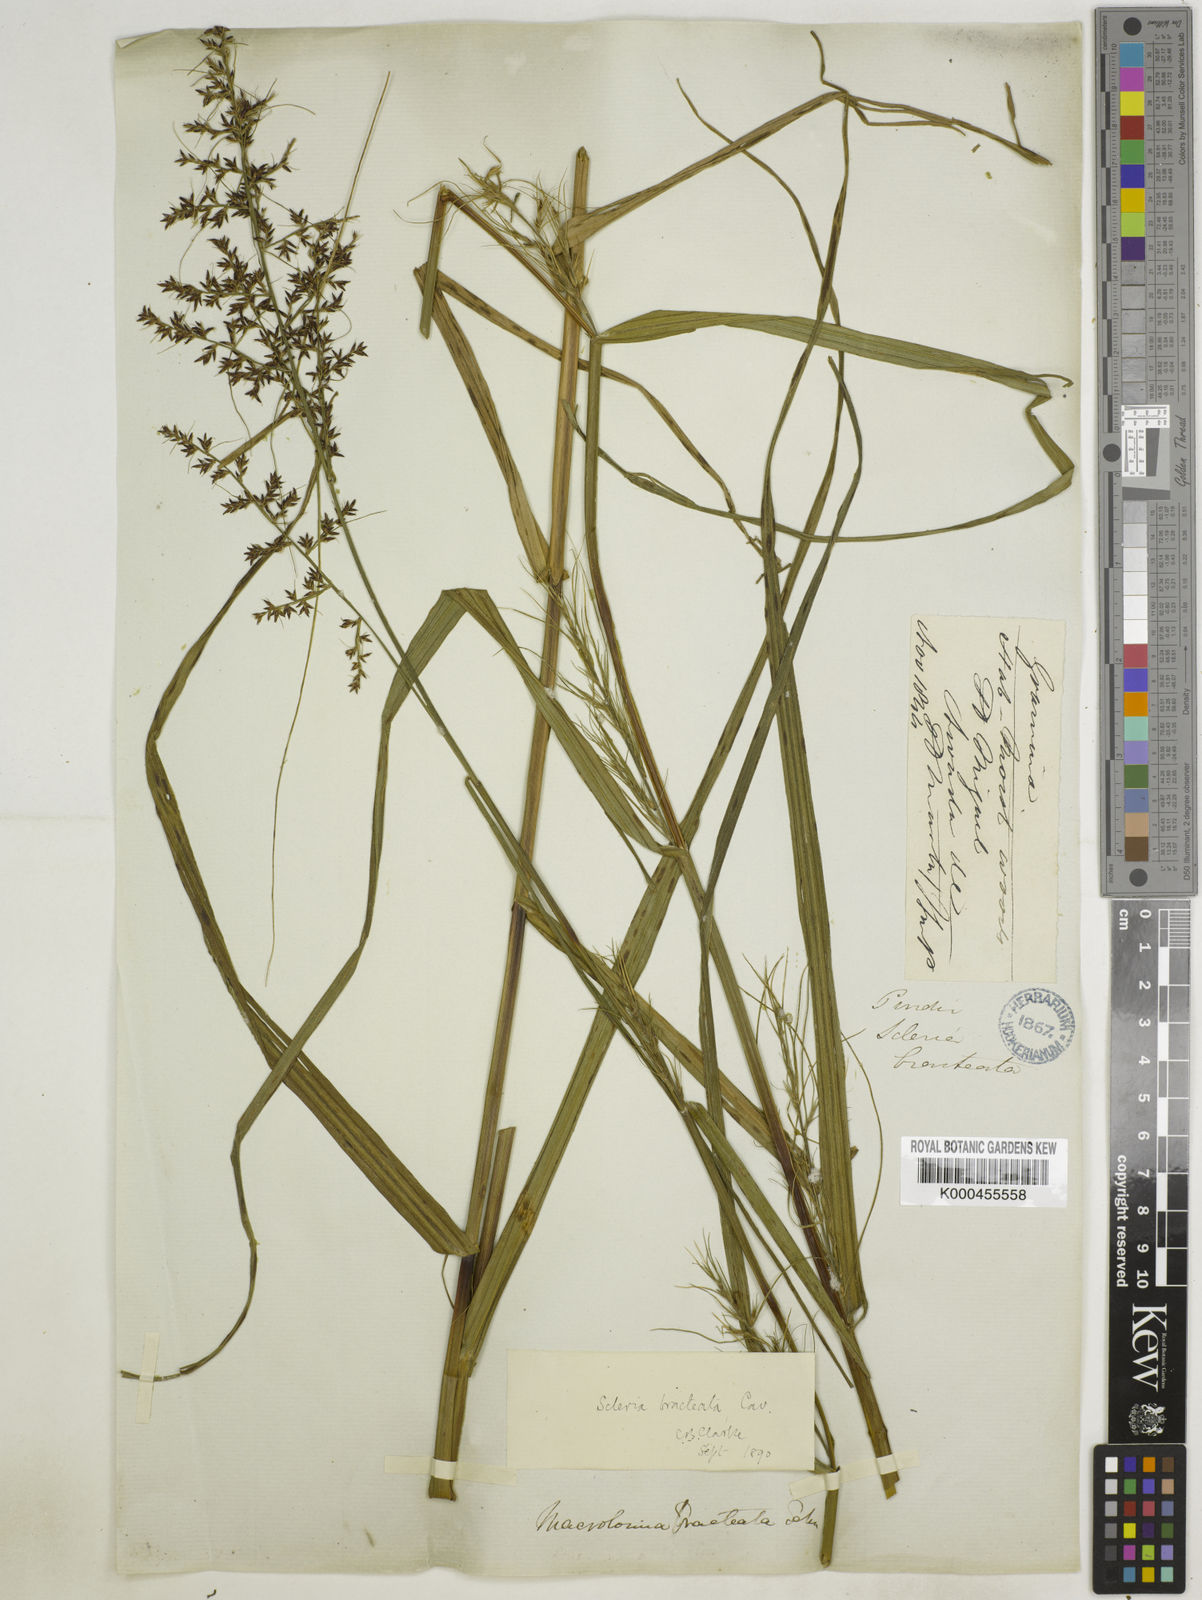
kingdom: Plantae
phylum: Tracheophyta
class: Liliopsida
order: Poales
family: Cyperaceae
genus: Scleria
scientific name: Scleria bracteata
